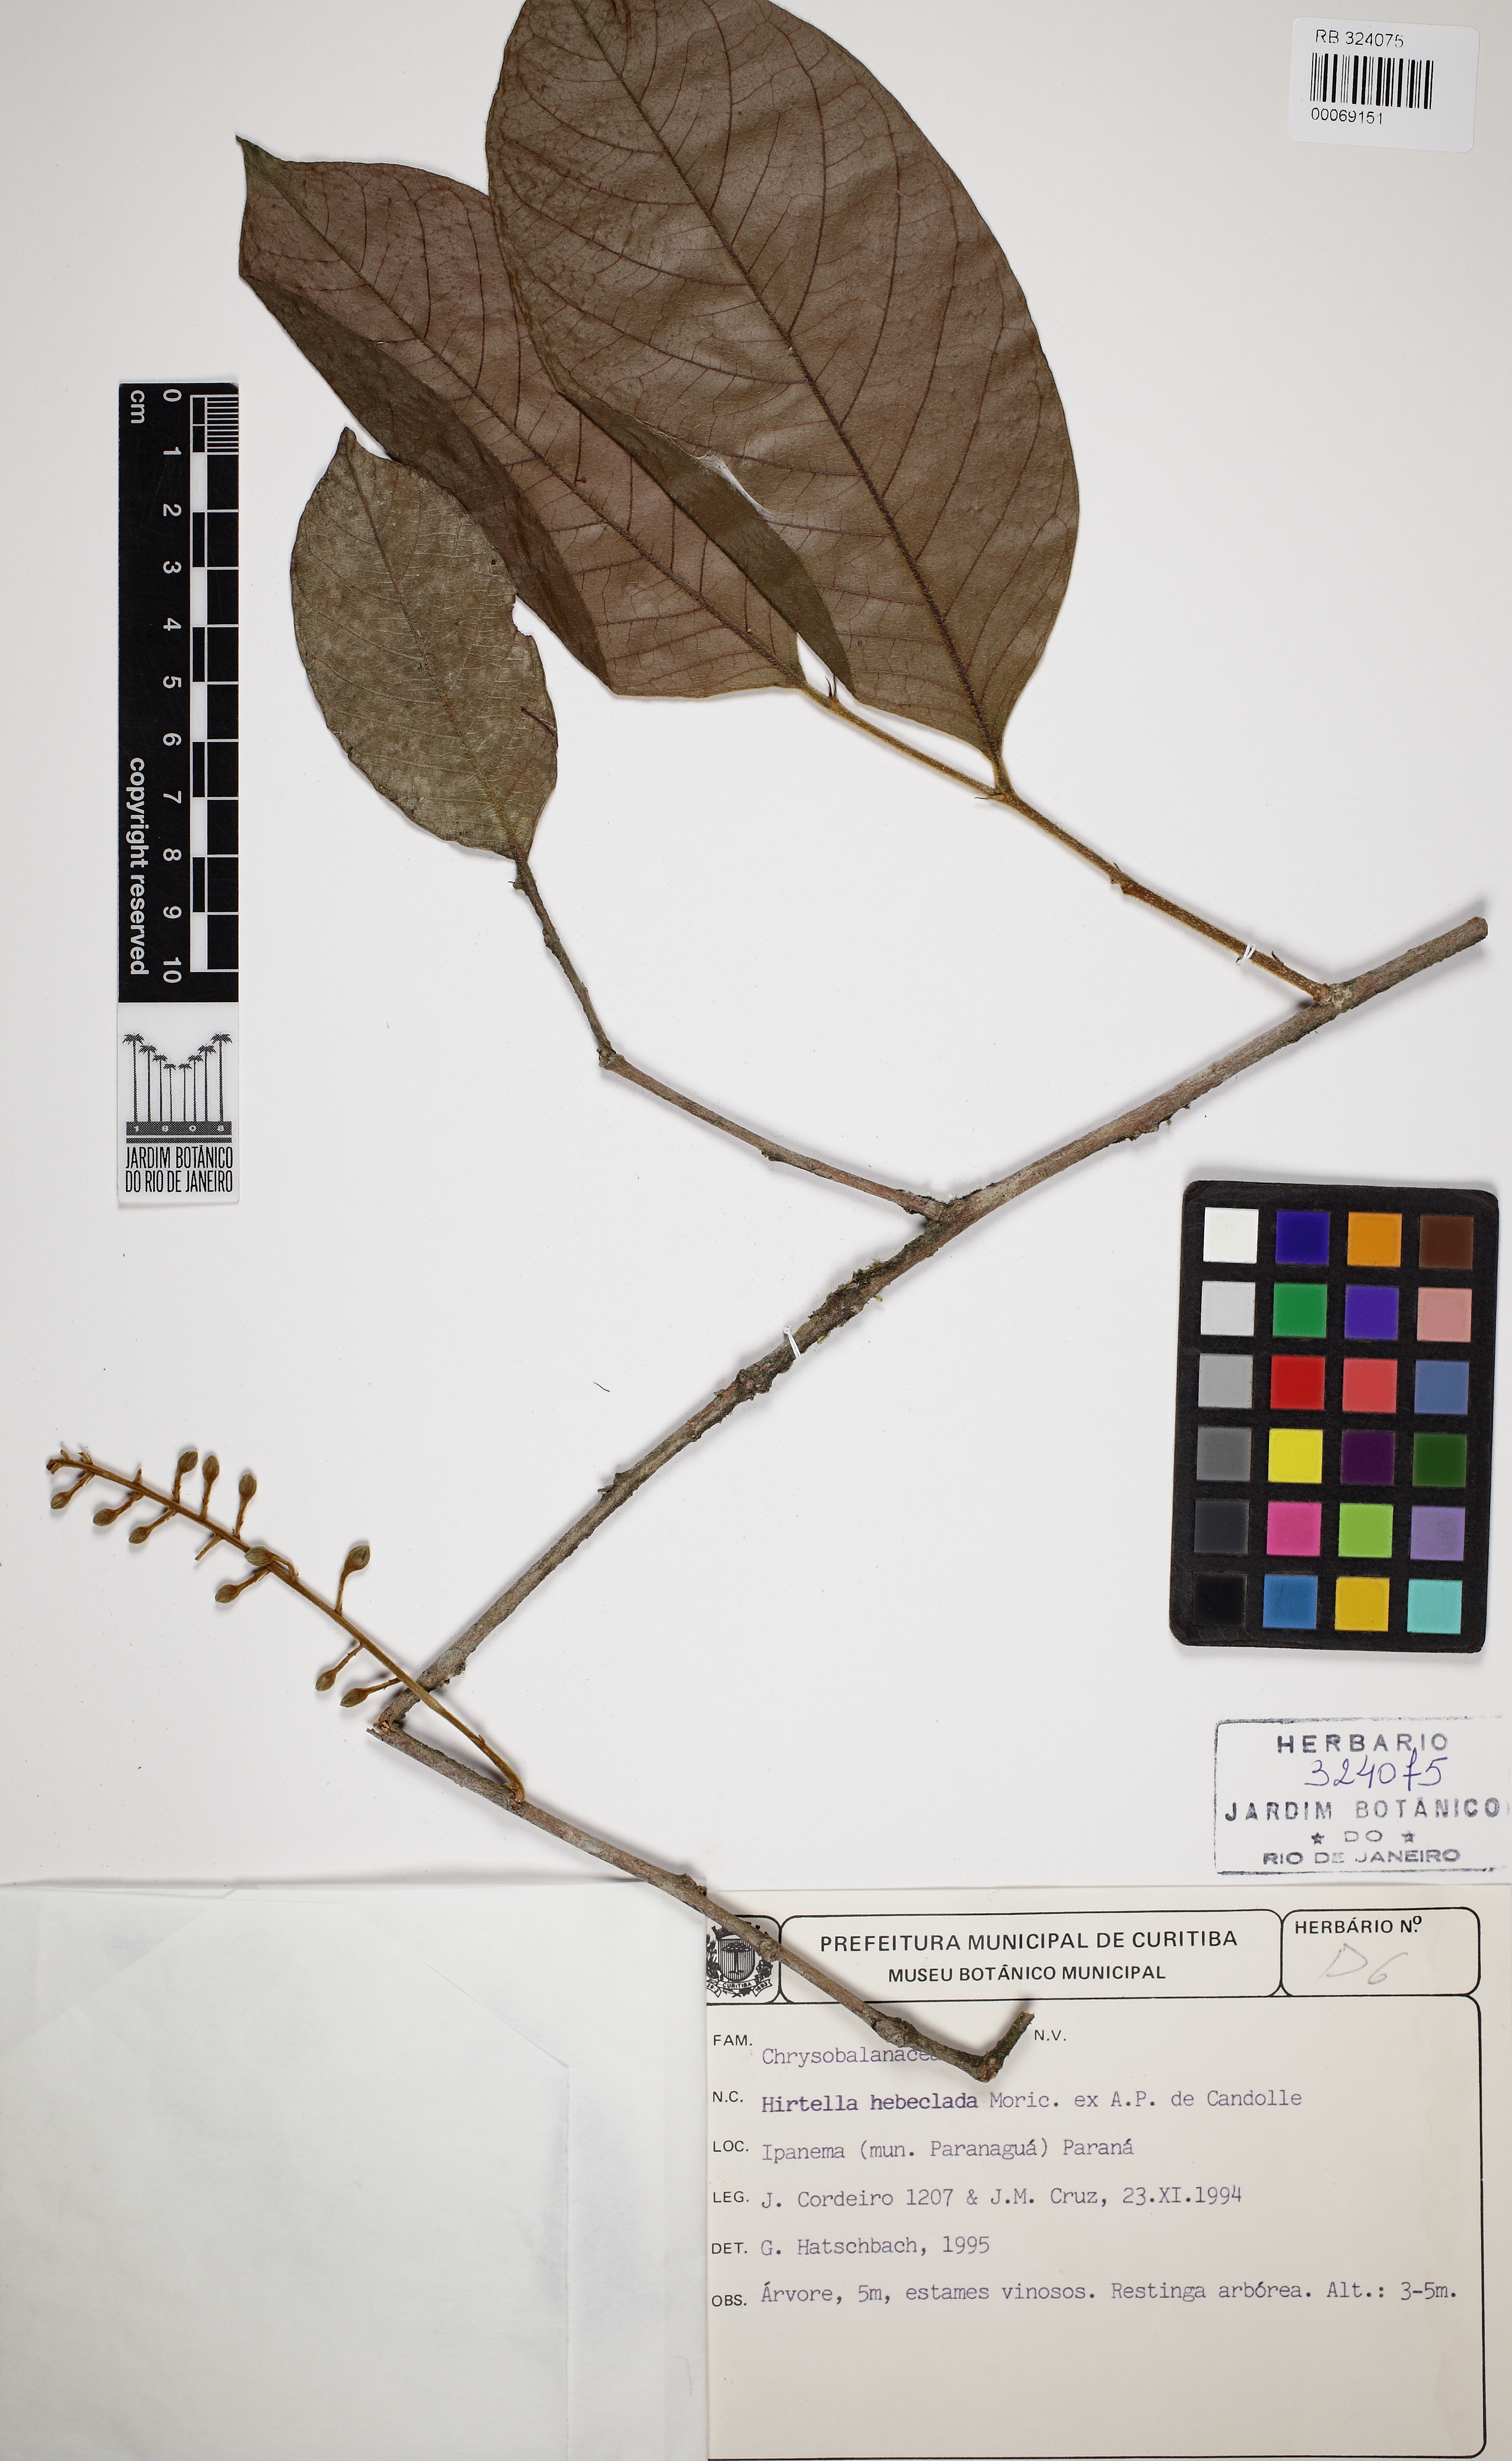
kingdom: Plantae
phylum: Tracheophyta
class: Magnoliopsida
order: Malpighiales
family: Chrysobalanaceae
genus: Hirtella
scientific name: Hirtella hebeclada
